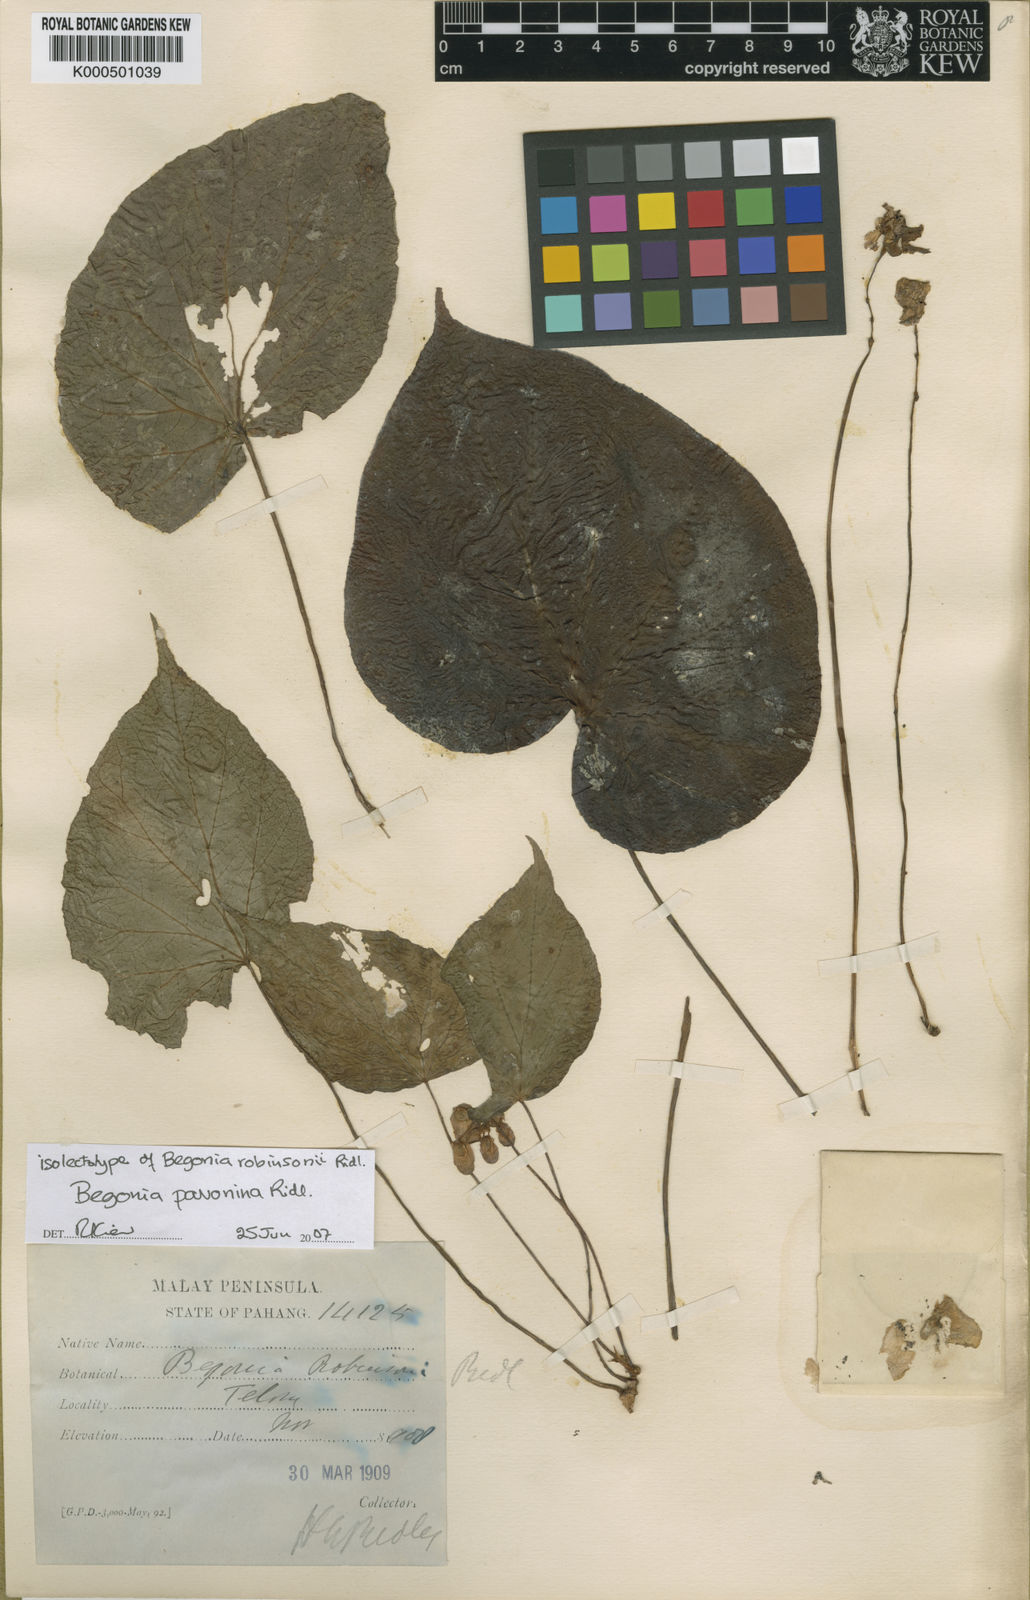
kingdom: Plantae
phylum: Tracheophyta
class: Magnoliopsida
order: Cucurbitales
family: Begoniaceae
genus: Begonia
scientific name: Begonia pavonina
